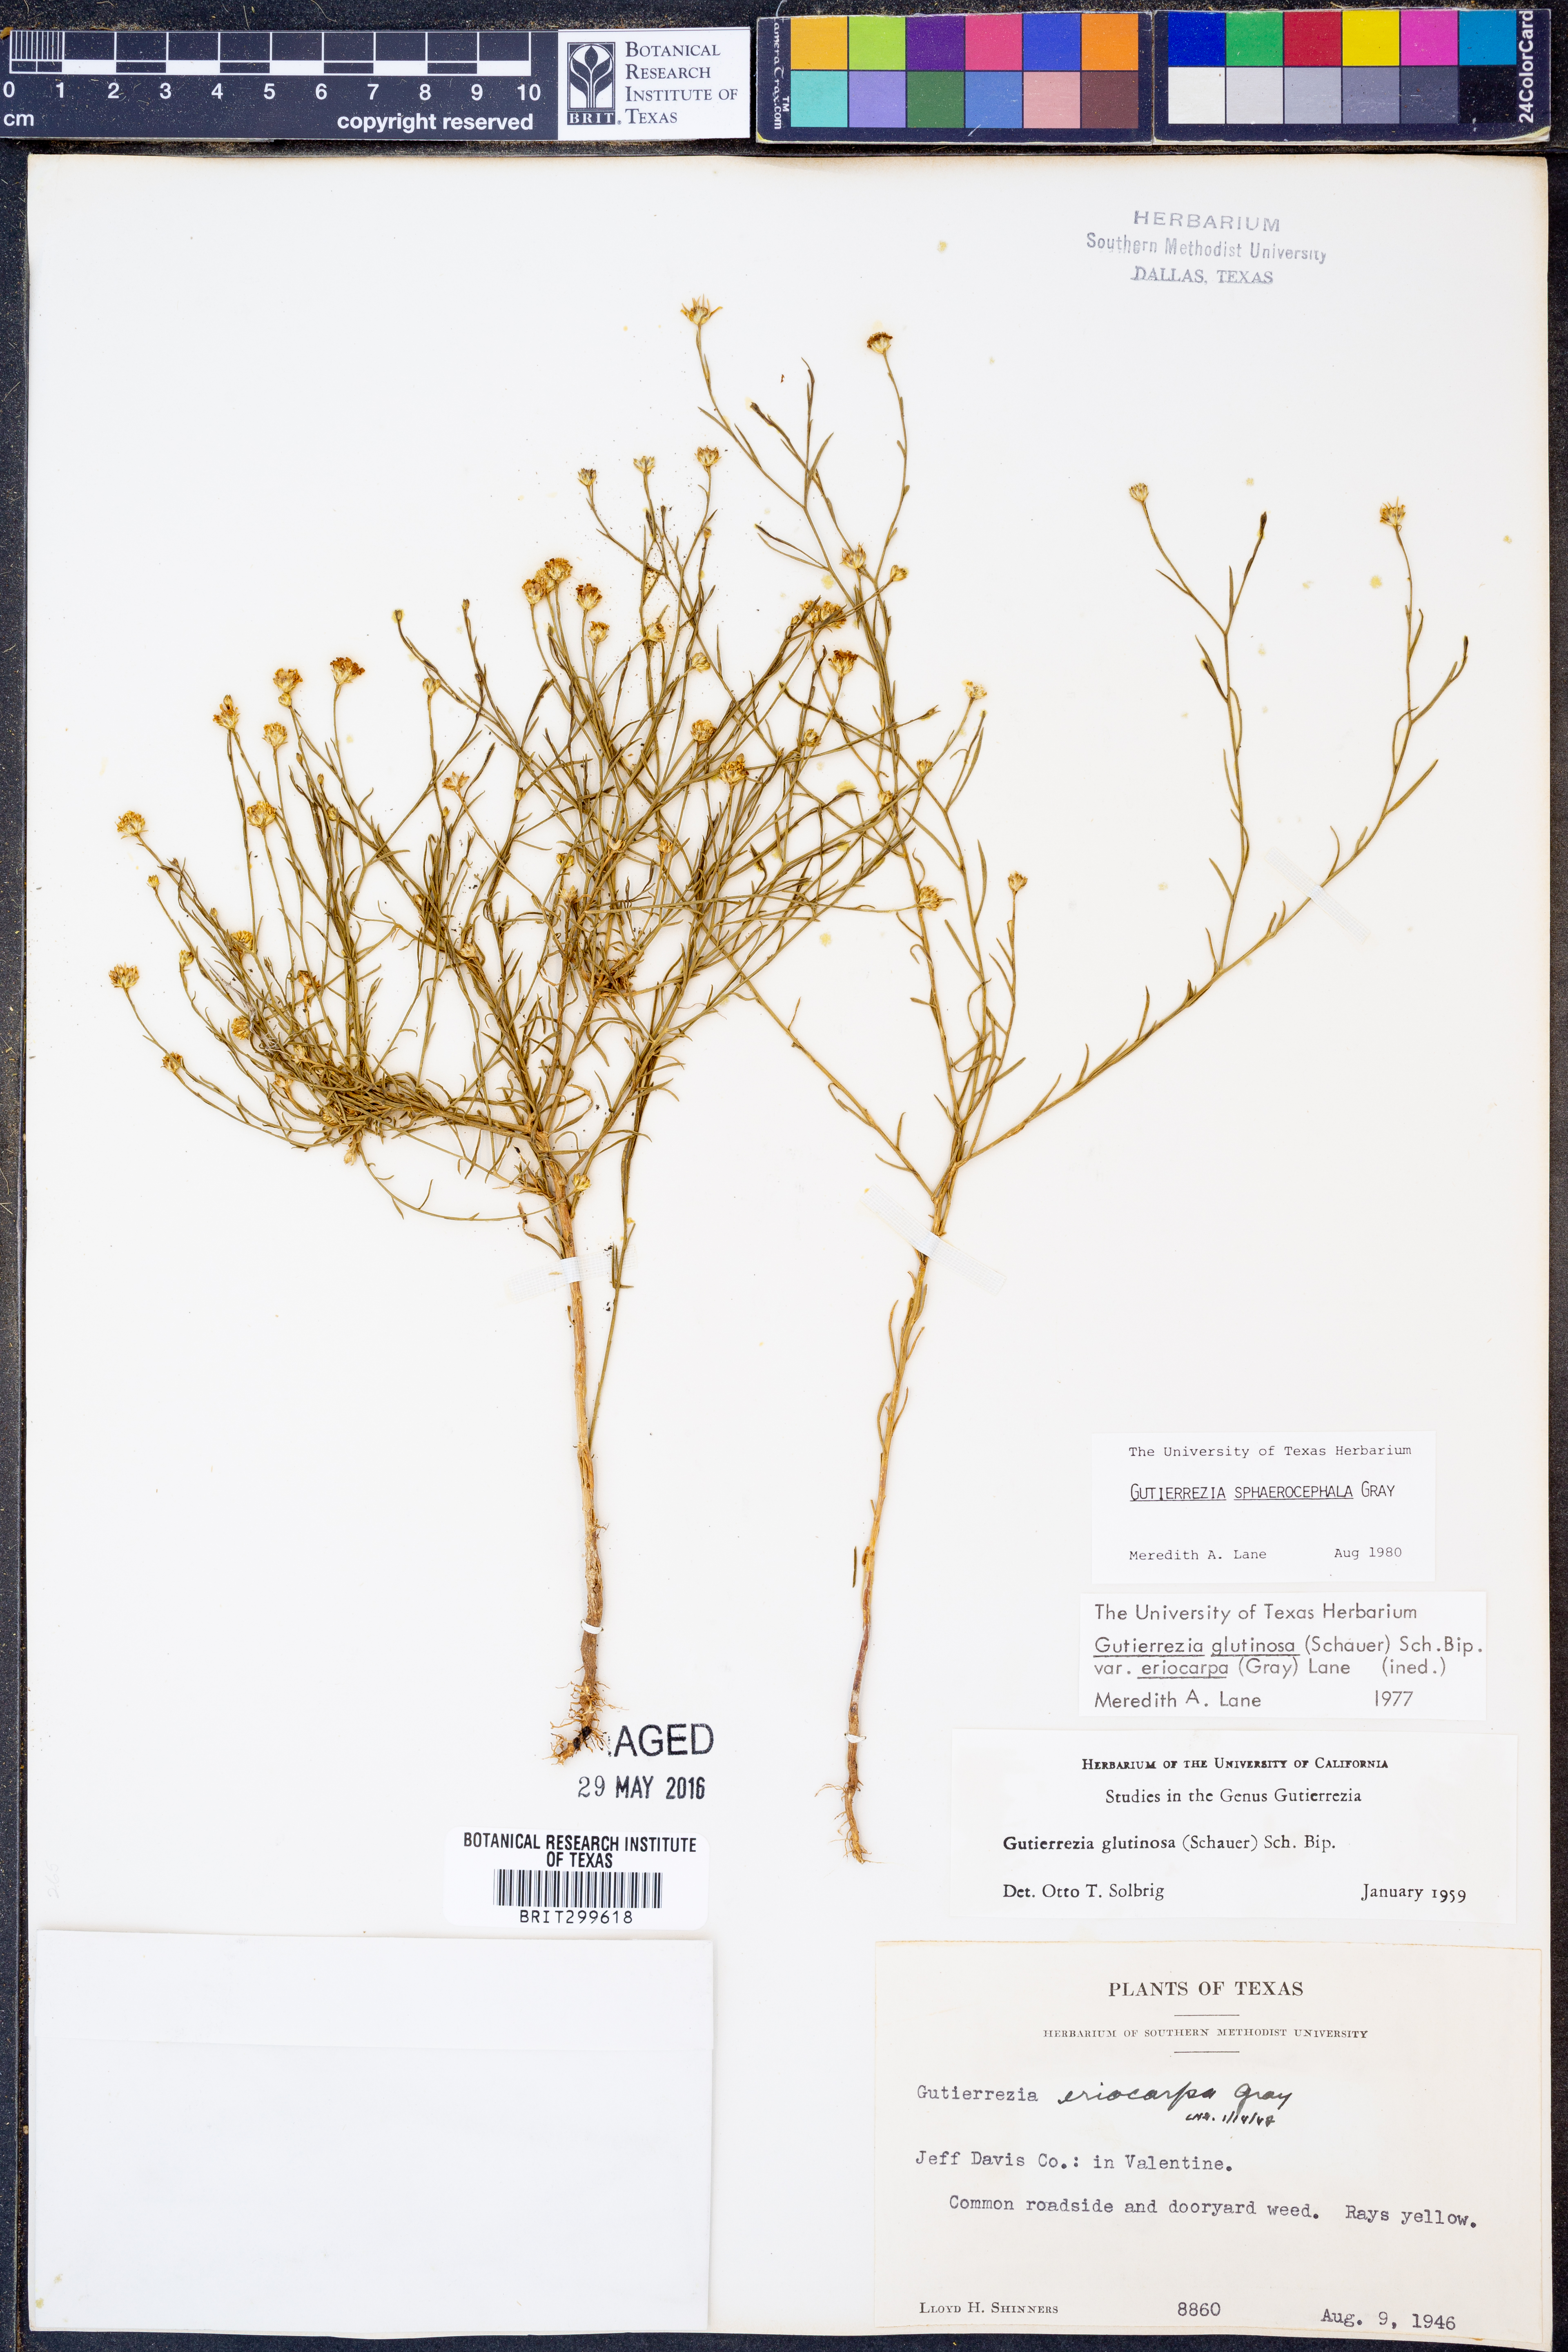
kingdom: Plantae
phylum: Tracheophyta
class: Magnoliopsida
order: Asterales
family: Asteraceae
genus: Gutierrezia
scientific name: Gutierrezia sphaerocephala
